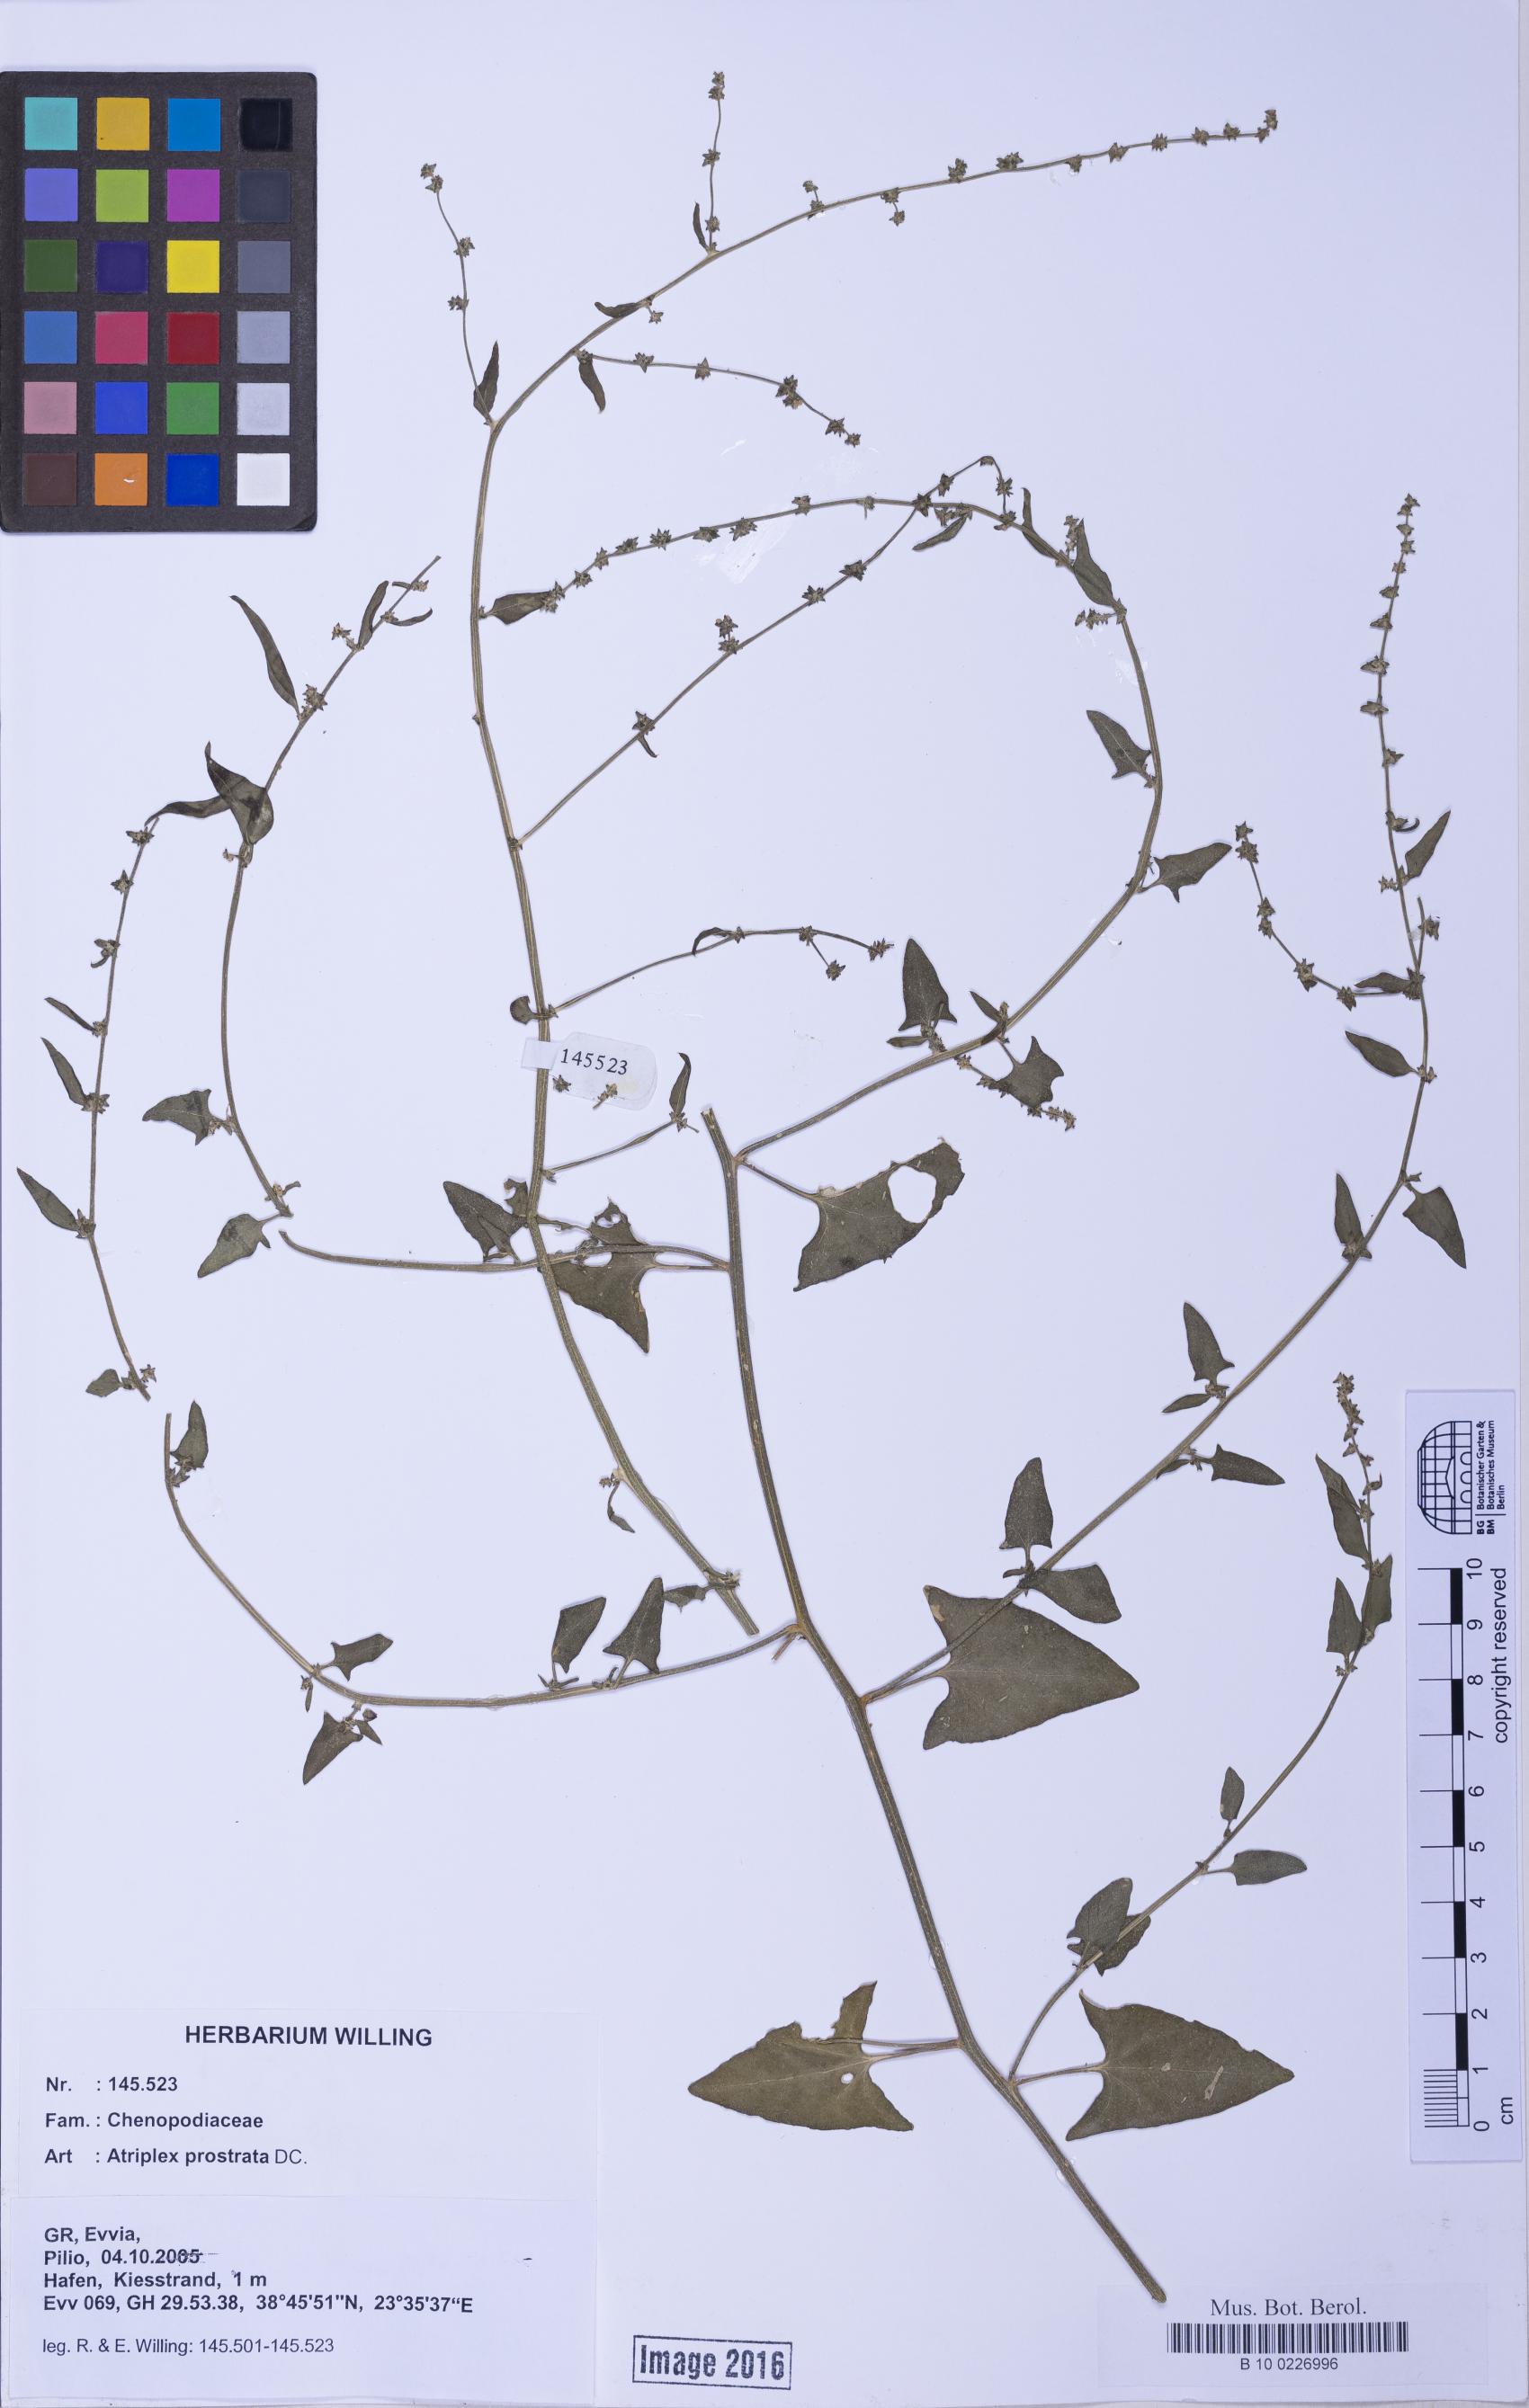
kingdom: Plantae
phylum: Tracheophyta
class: Magnoliopsida
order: Caryophyllales
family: Amaranthaceae
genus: Atriplex
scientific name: Atriplex prostrata
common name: Spear-leaved orache
